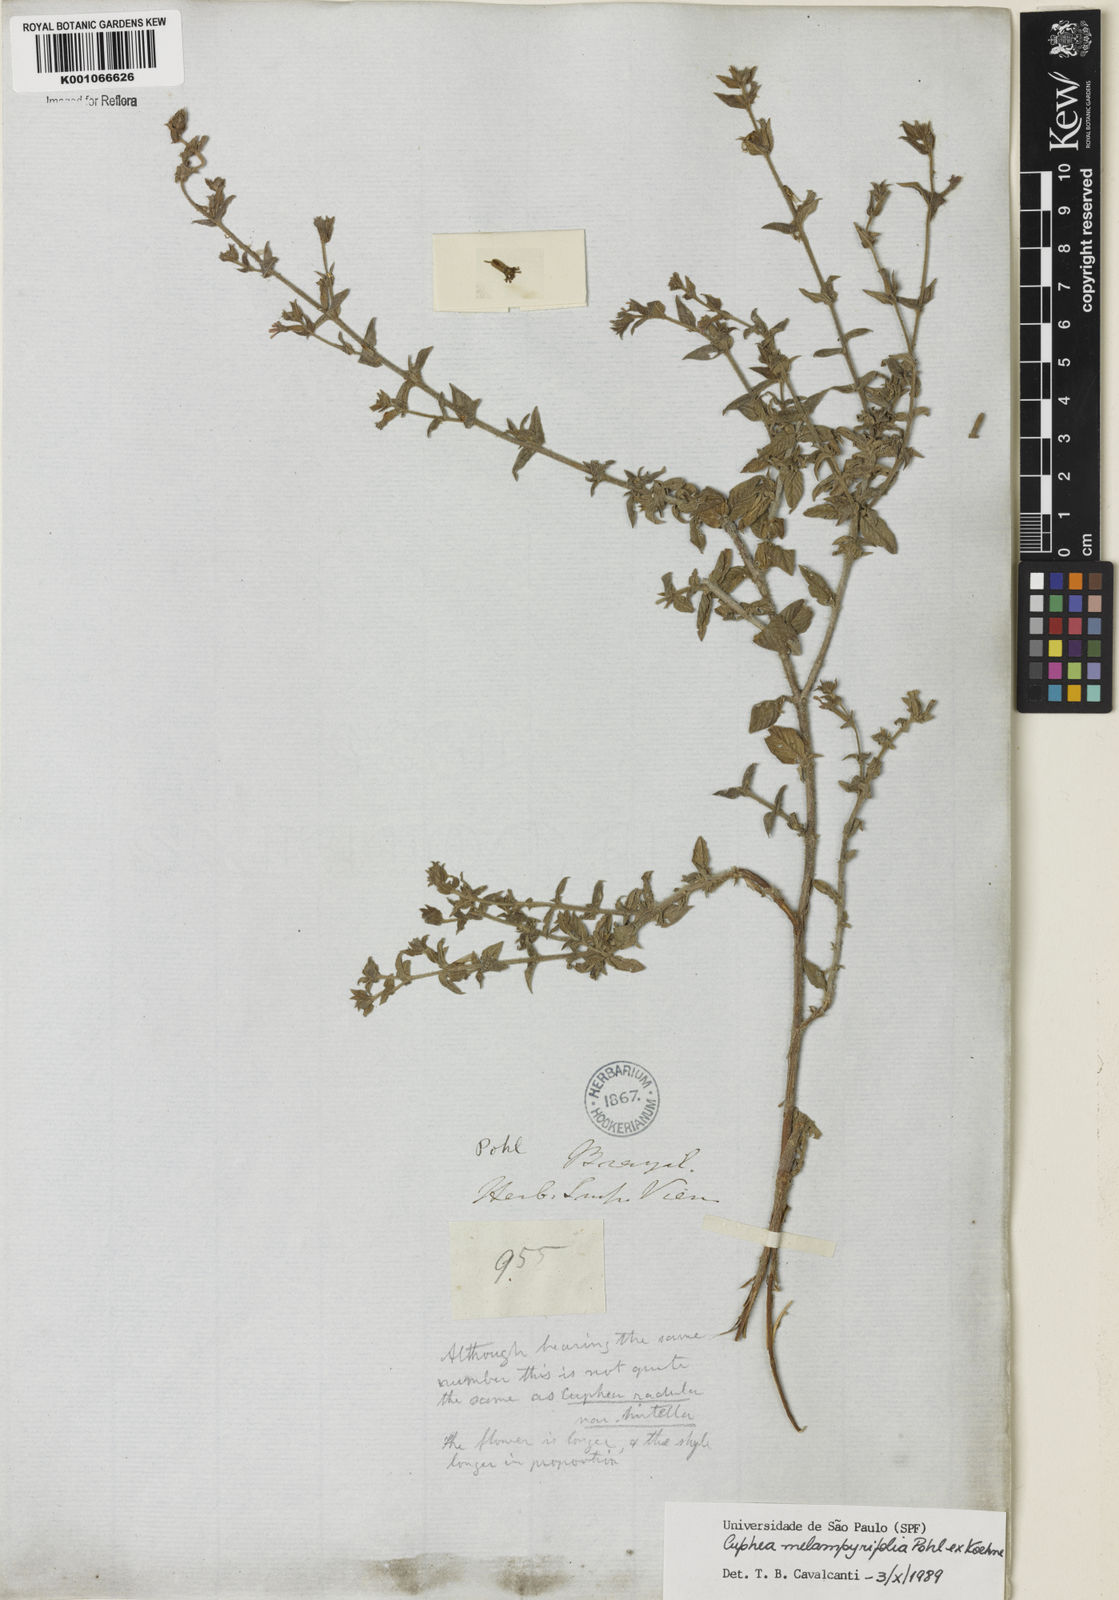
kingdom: Plantae
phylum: Tracheophyta
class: Magnoliopsida
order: Myrtales
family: Lythraceae
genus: Cuphea
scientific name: Cuphea antisyphilitica
